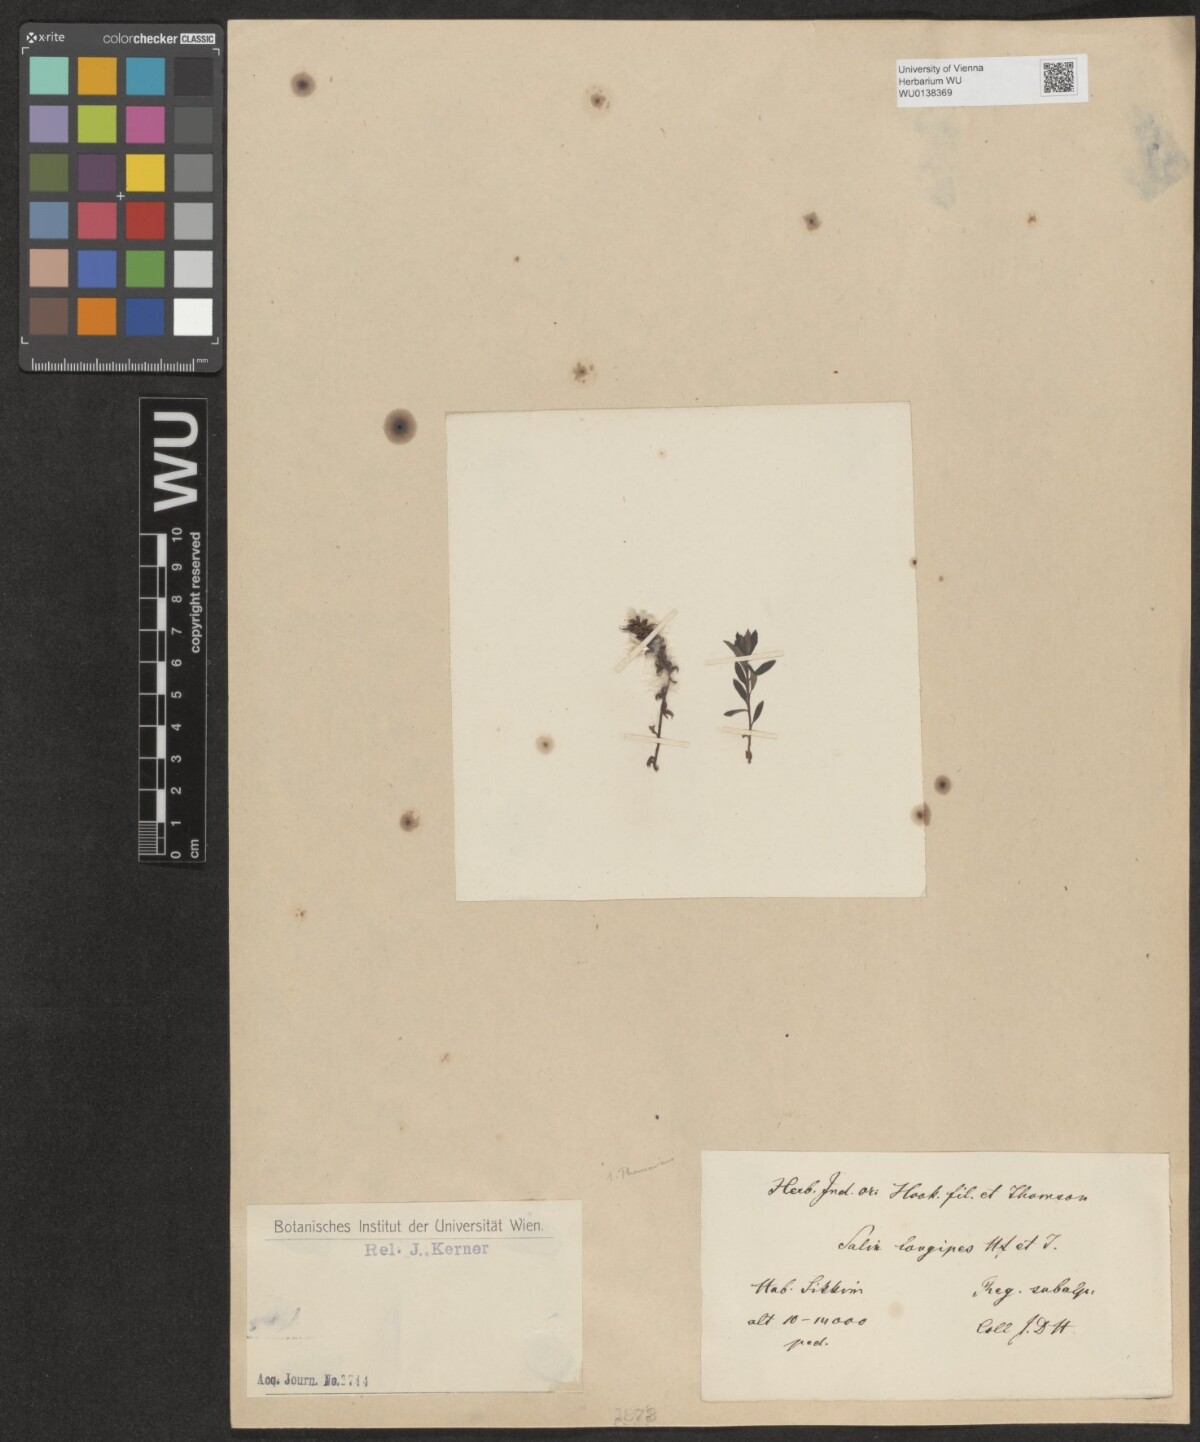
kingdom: Plantae
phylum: Tracheophyta
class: Magnoliopsida
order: Malpighiales
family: Salicaceae
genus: Salix
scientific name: Salix fruticulosa
